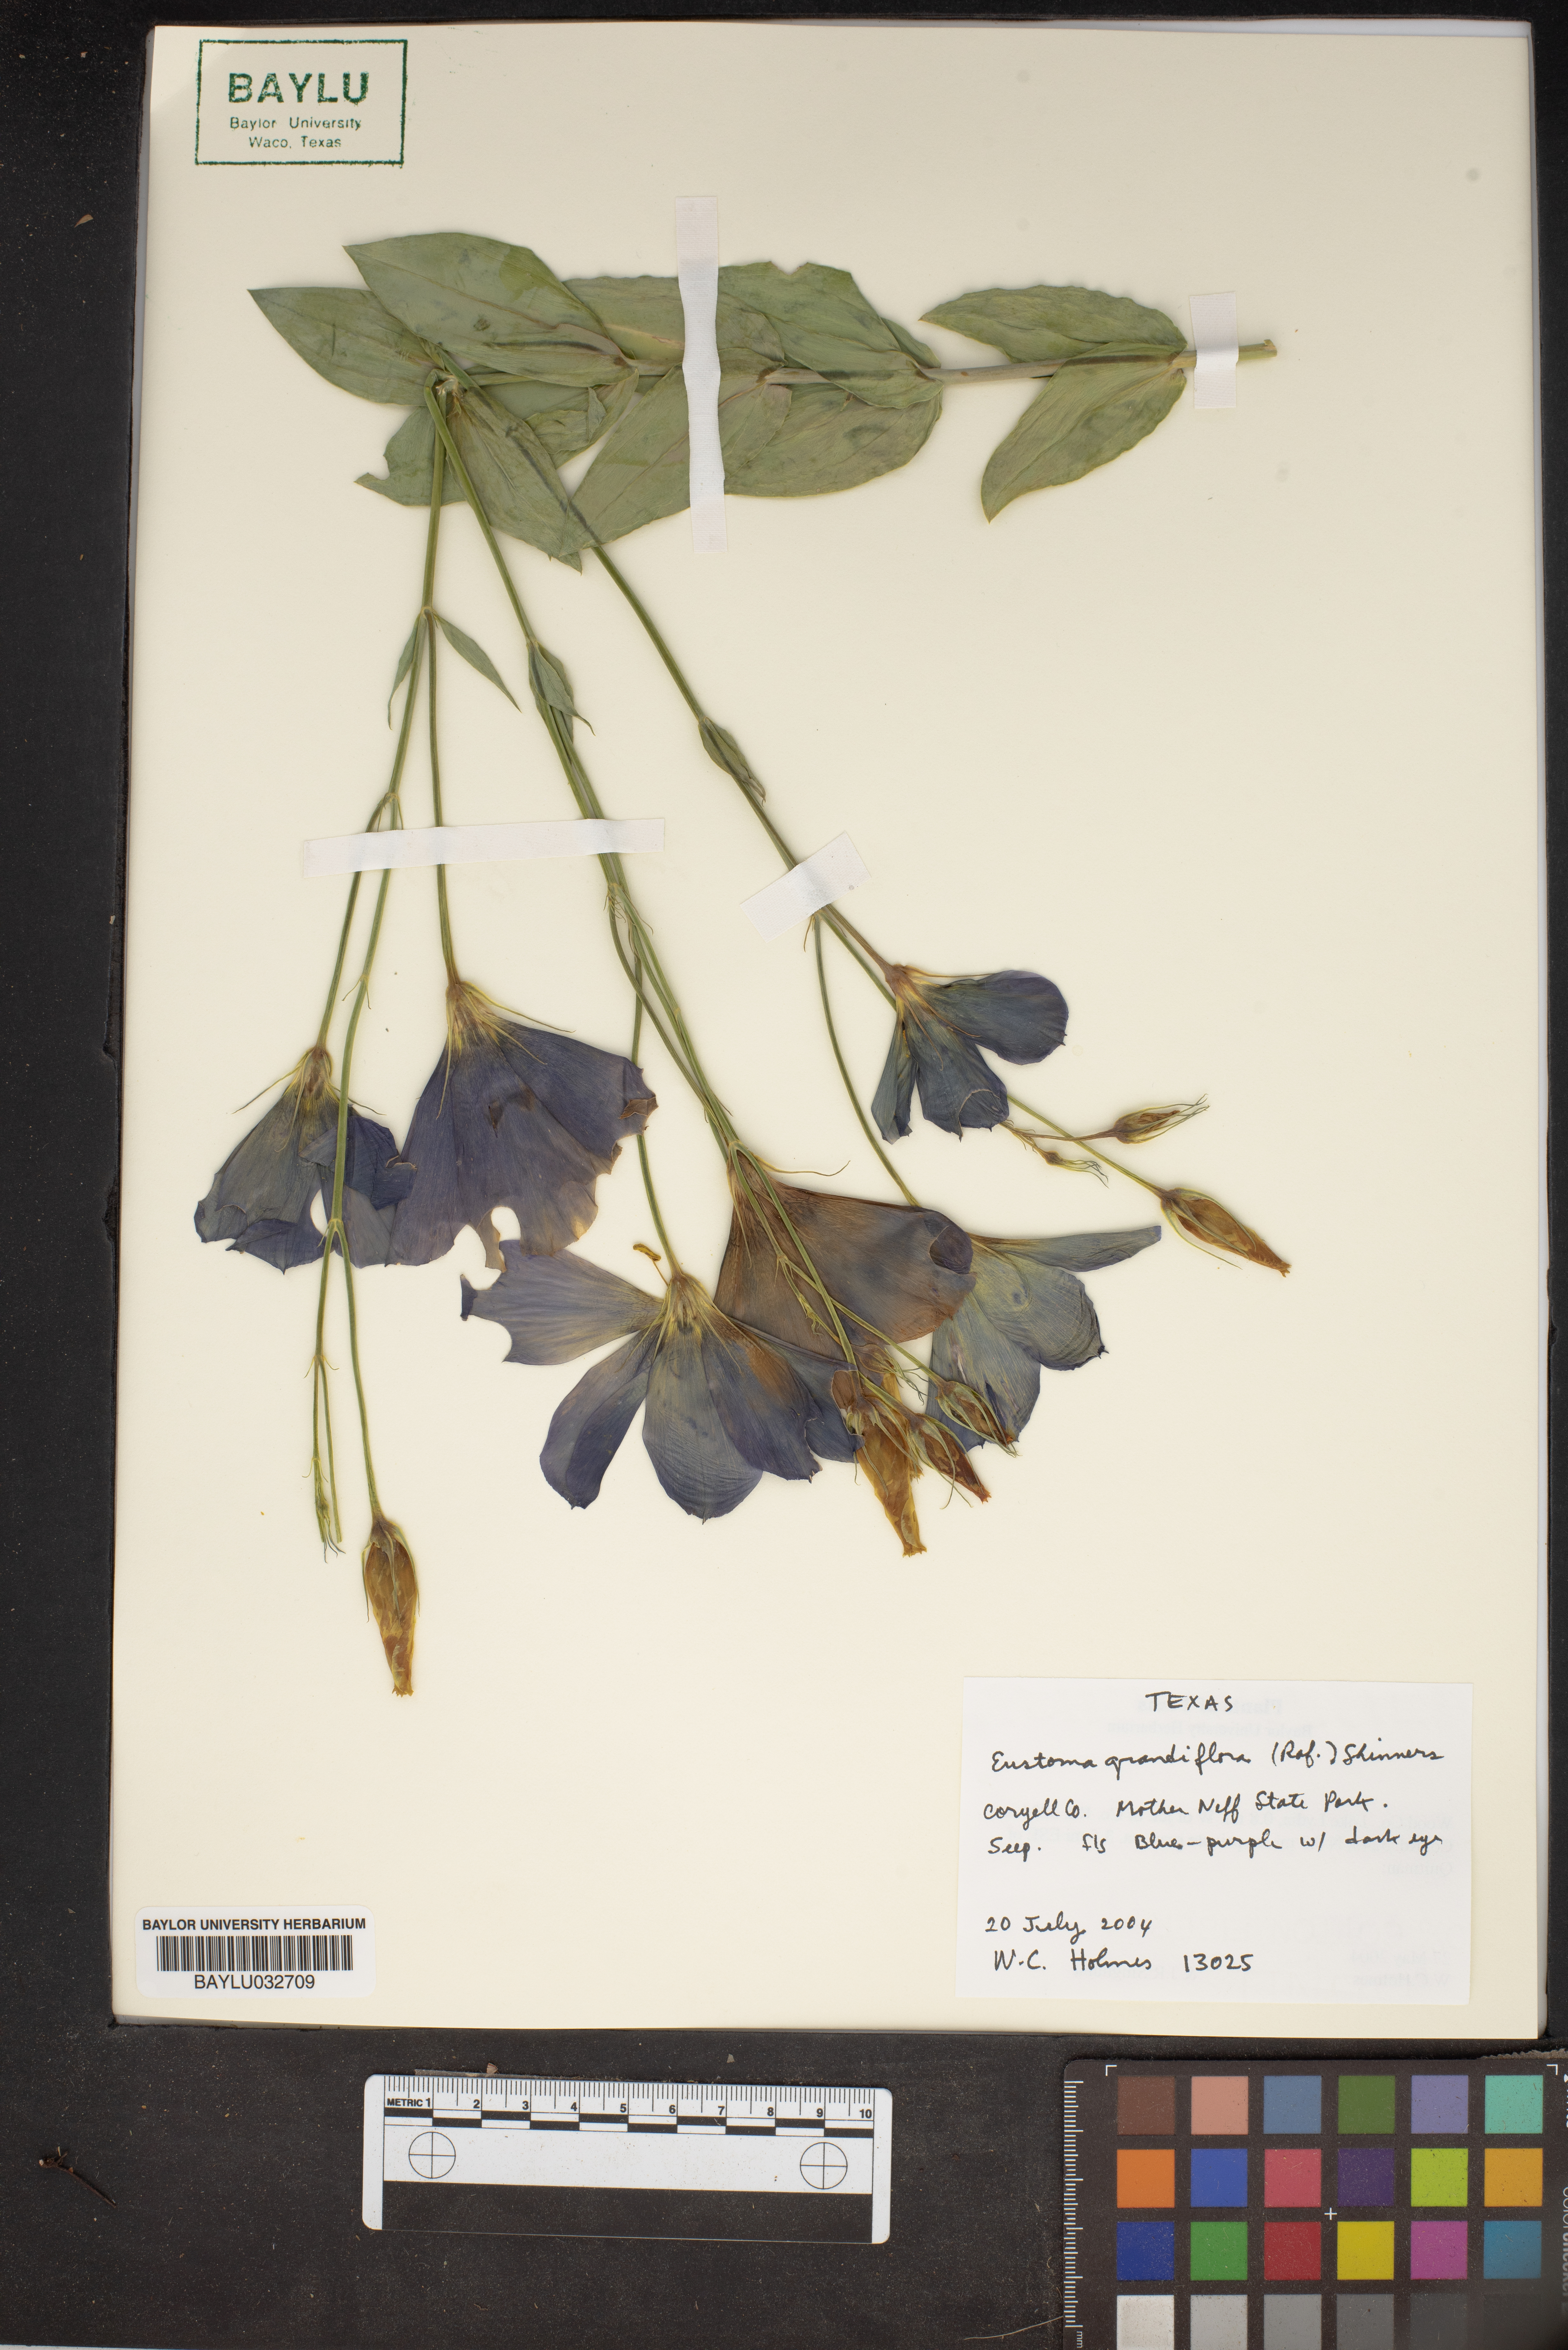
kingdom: Plantae
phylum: Tracheophyta
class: Magnoliopsida
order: Gentianales
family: Gentianaceae
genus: Eustoma
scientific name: Eustoma russellianum
